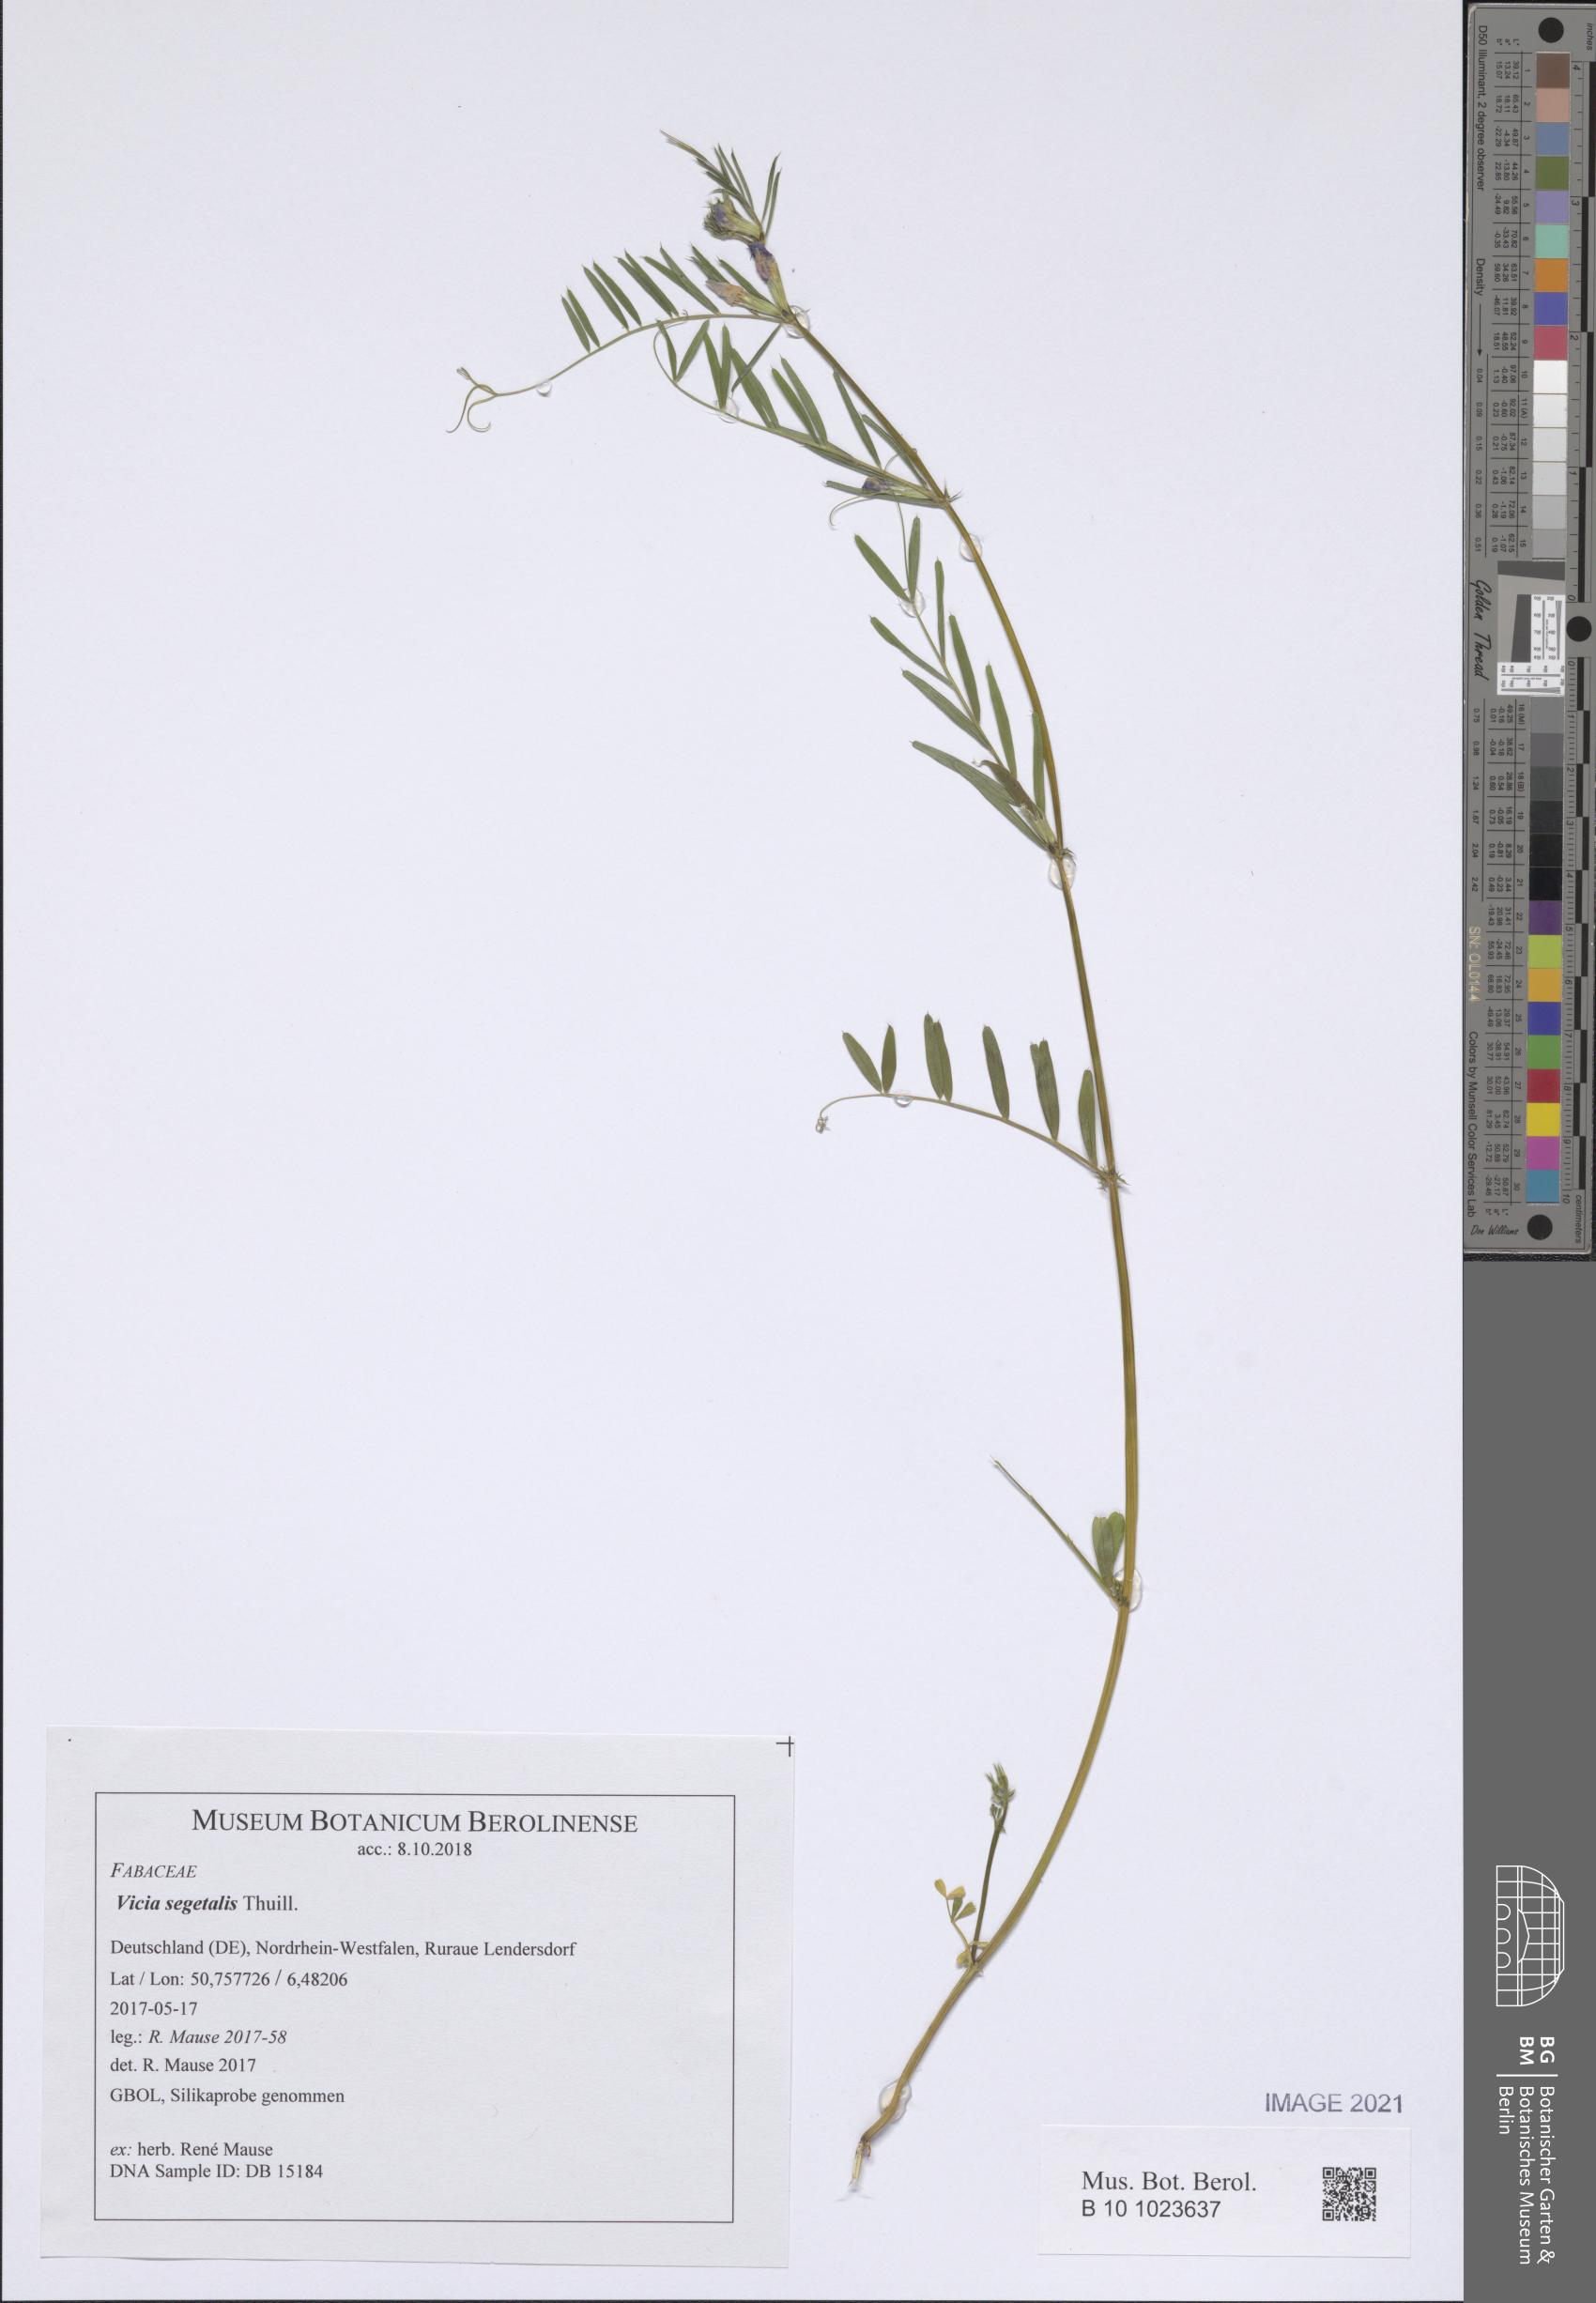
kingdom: Plantae
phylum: Tracheophyta
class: Magnoliopsida
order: Fabales
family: Fabaceae
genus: Vicia
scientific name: Vicia sativa
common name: Garden vetch
